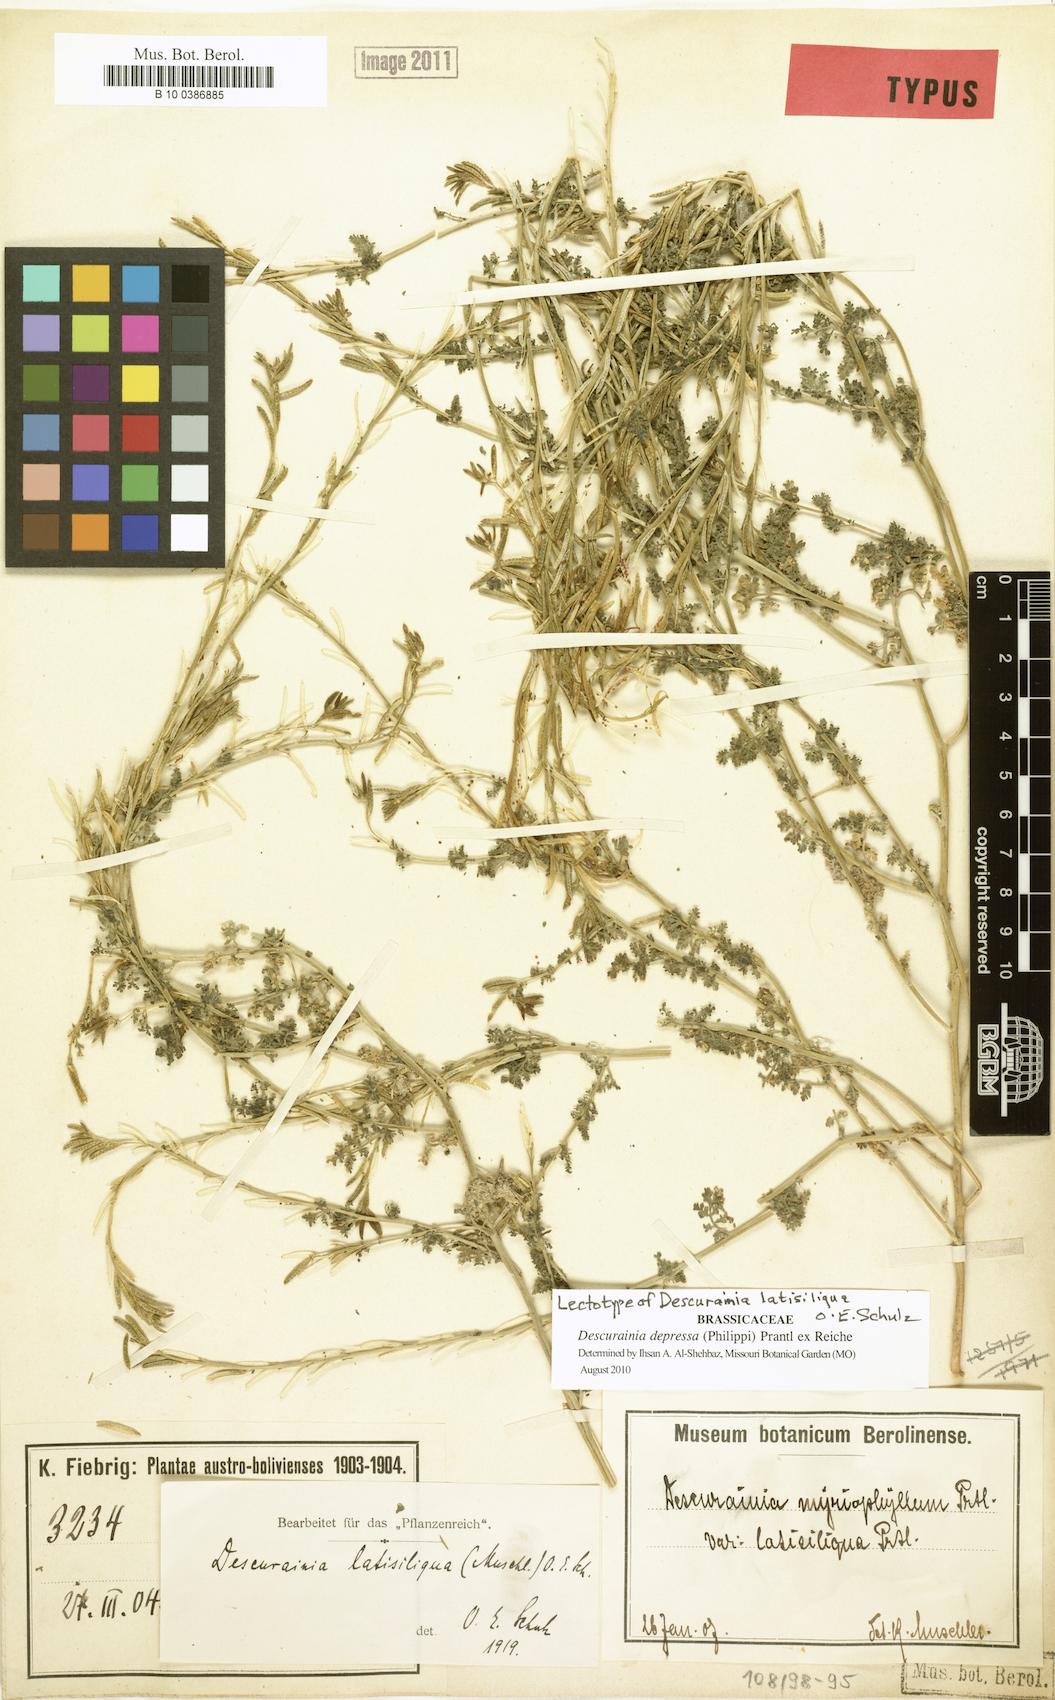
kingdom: Plantae
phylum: Tracheophyta
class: Magnoliopsida
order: Brassicales
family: Brassicaceae
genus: Descurainia
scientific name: Descurainia depressa
